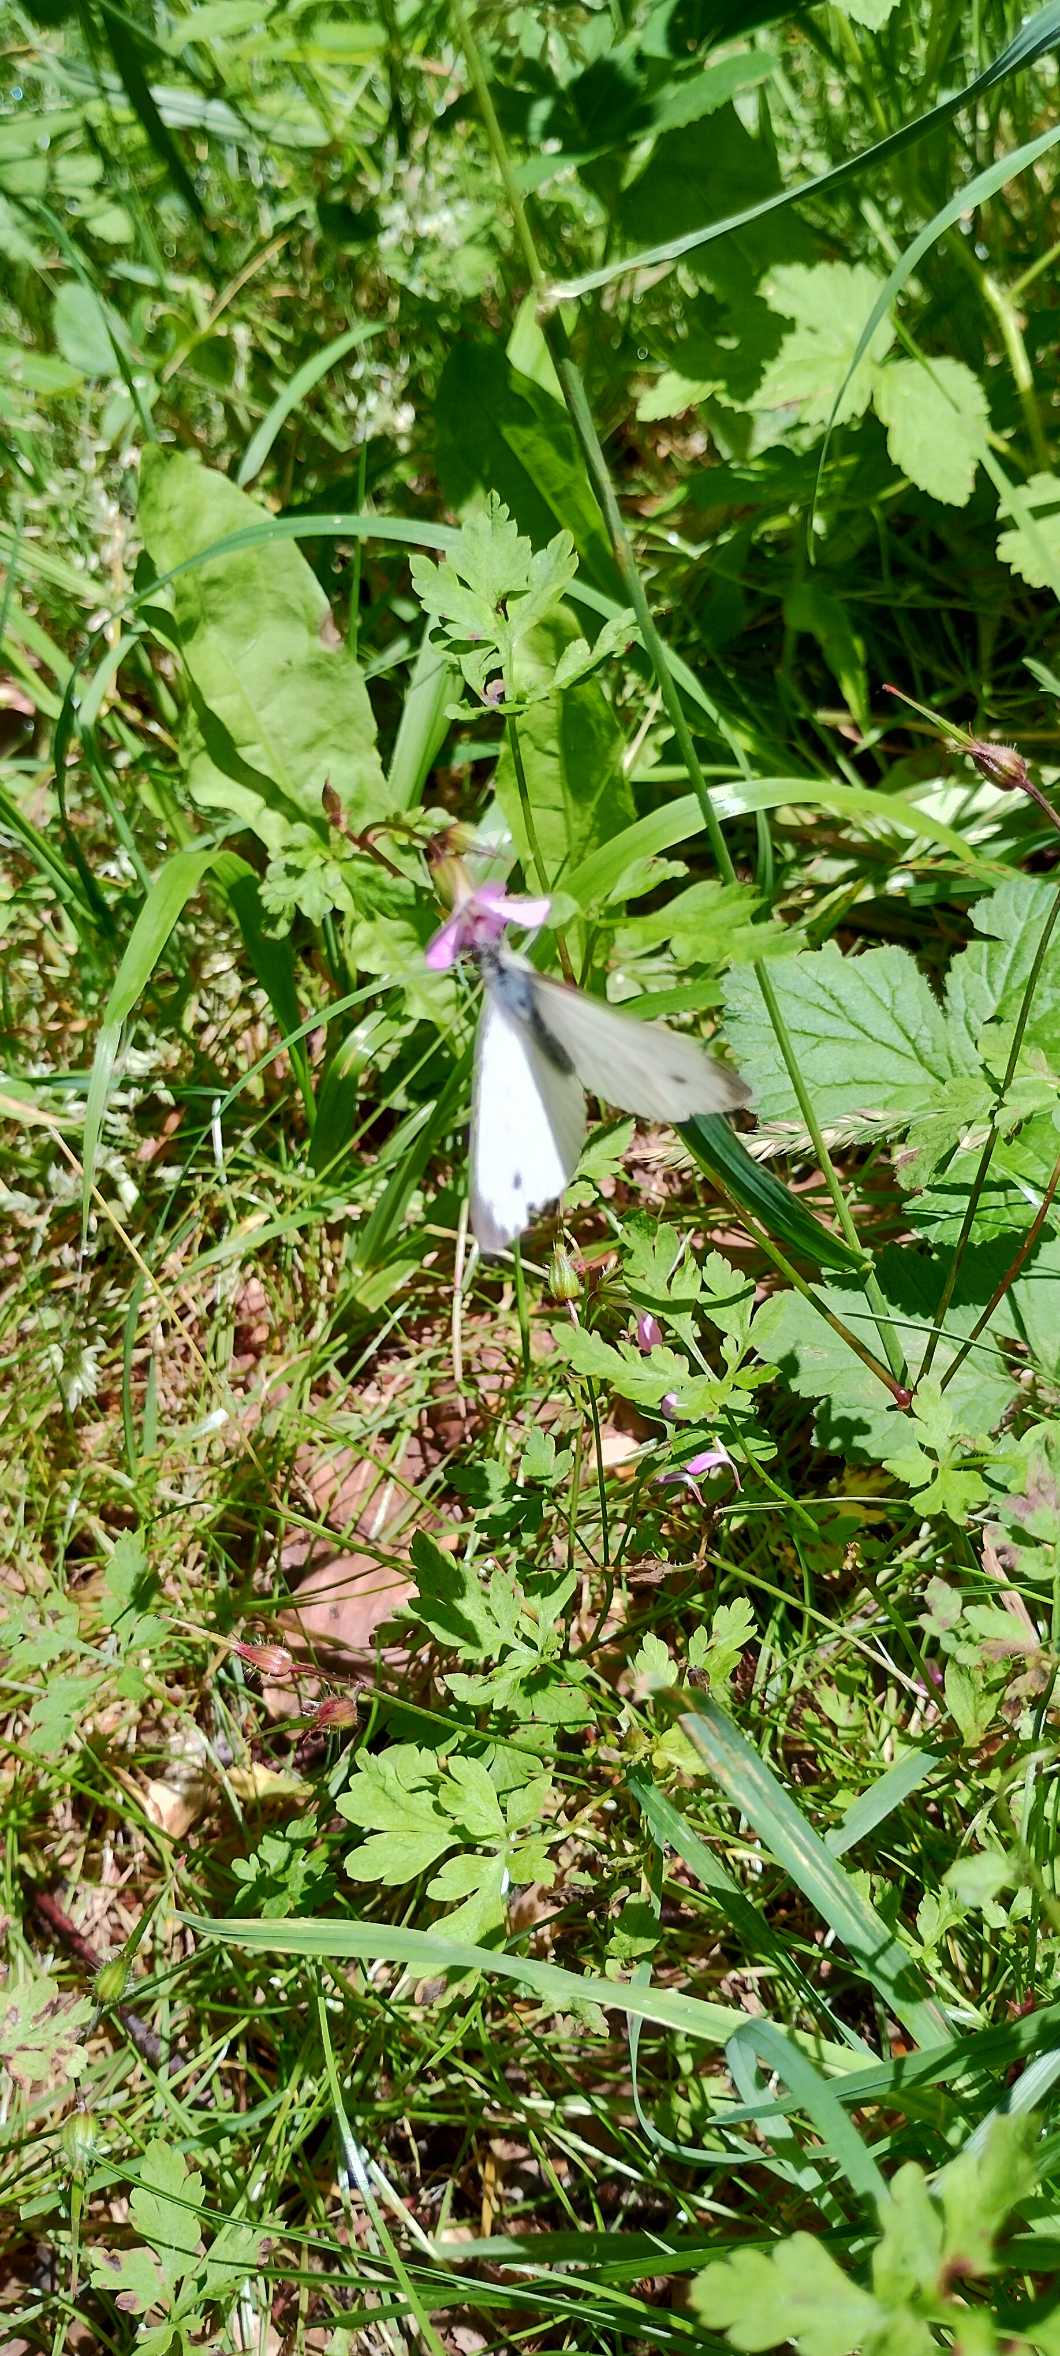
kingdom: Animalia
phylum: Arthropoda
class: Insecta
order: Lepidoptera
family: Pieridae
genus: Pieris
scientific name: Pieris rapae
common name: Lille kålsommerfugl
